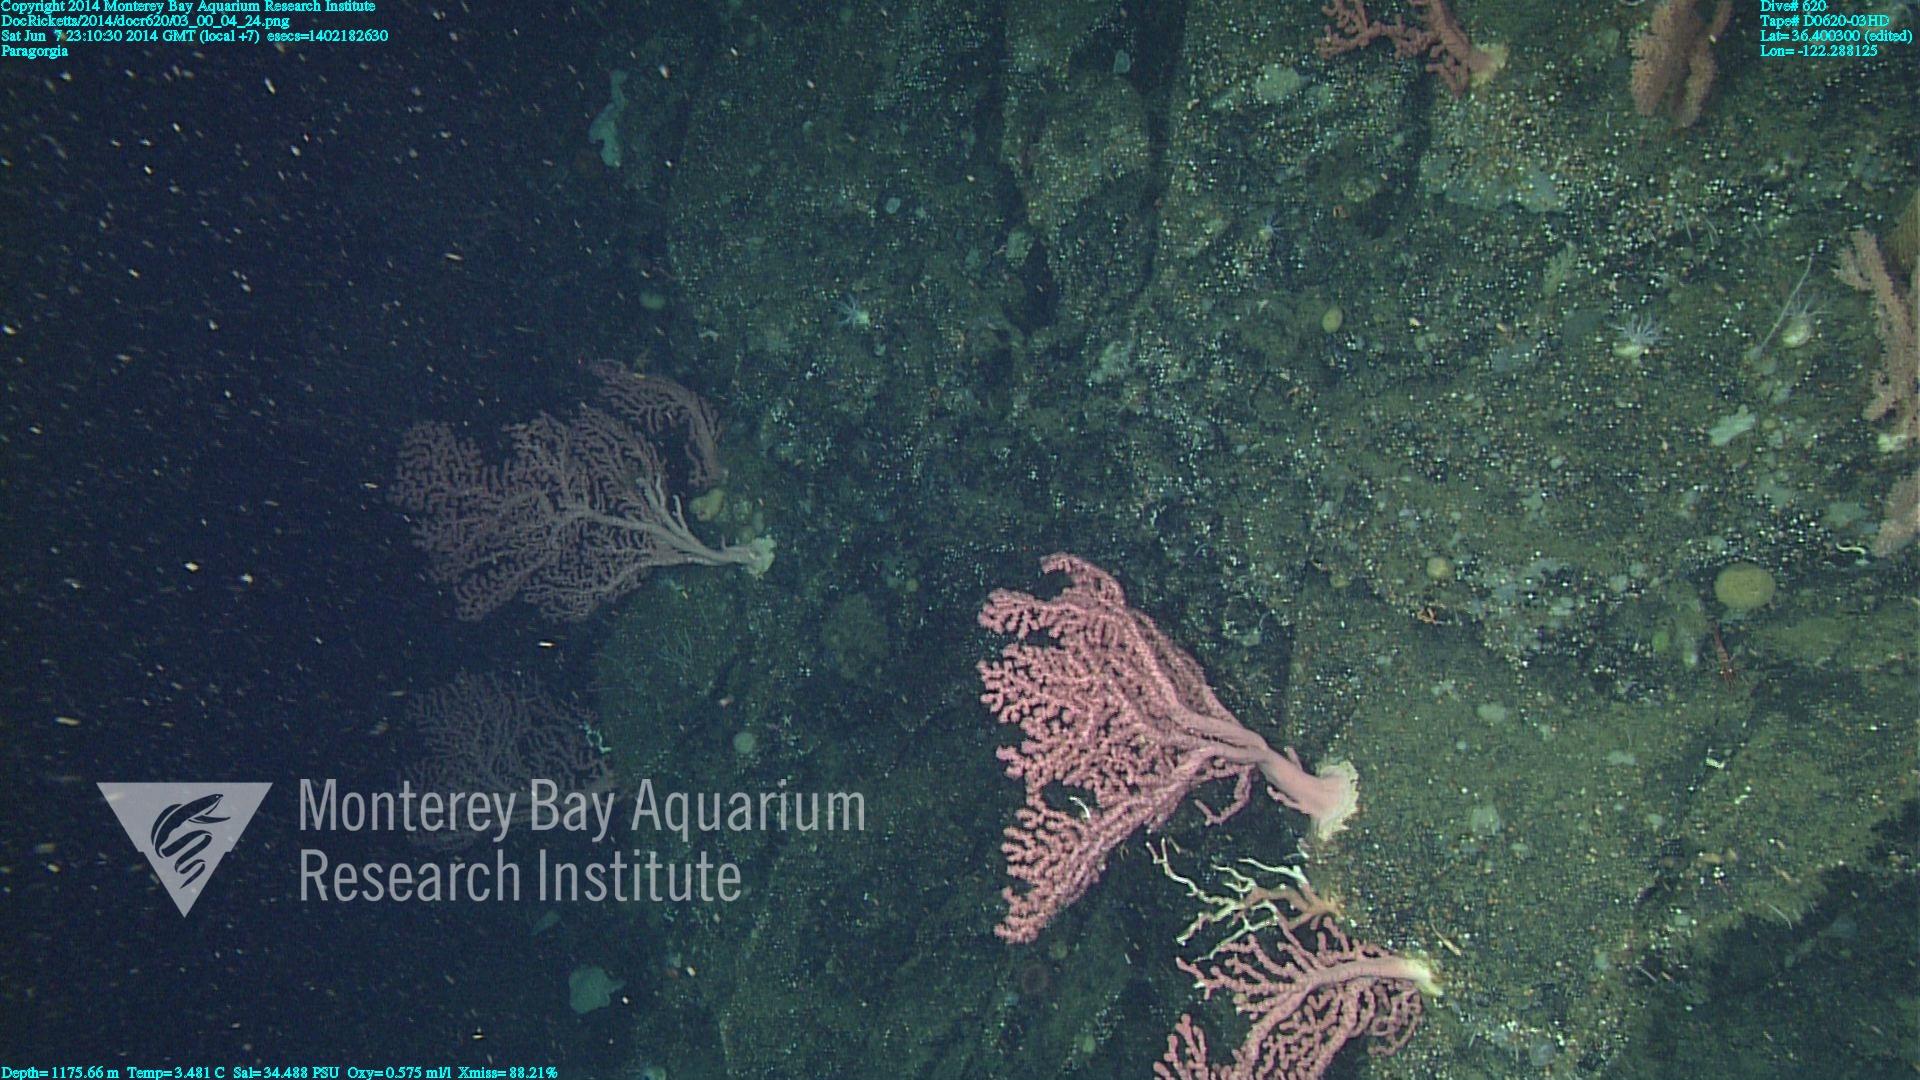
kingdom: Animalia
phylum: Cnidaria
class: Anthozoa
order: Scleralcyonacea
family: Coralliidae
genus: Paragorgia
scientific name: Paragorgia arborea
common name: Bubble gum coral
